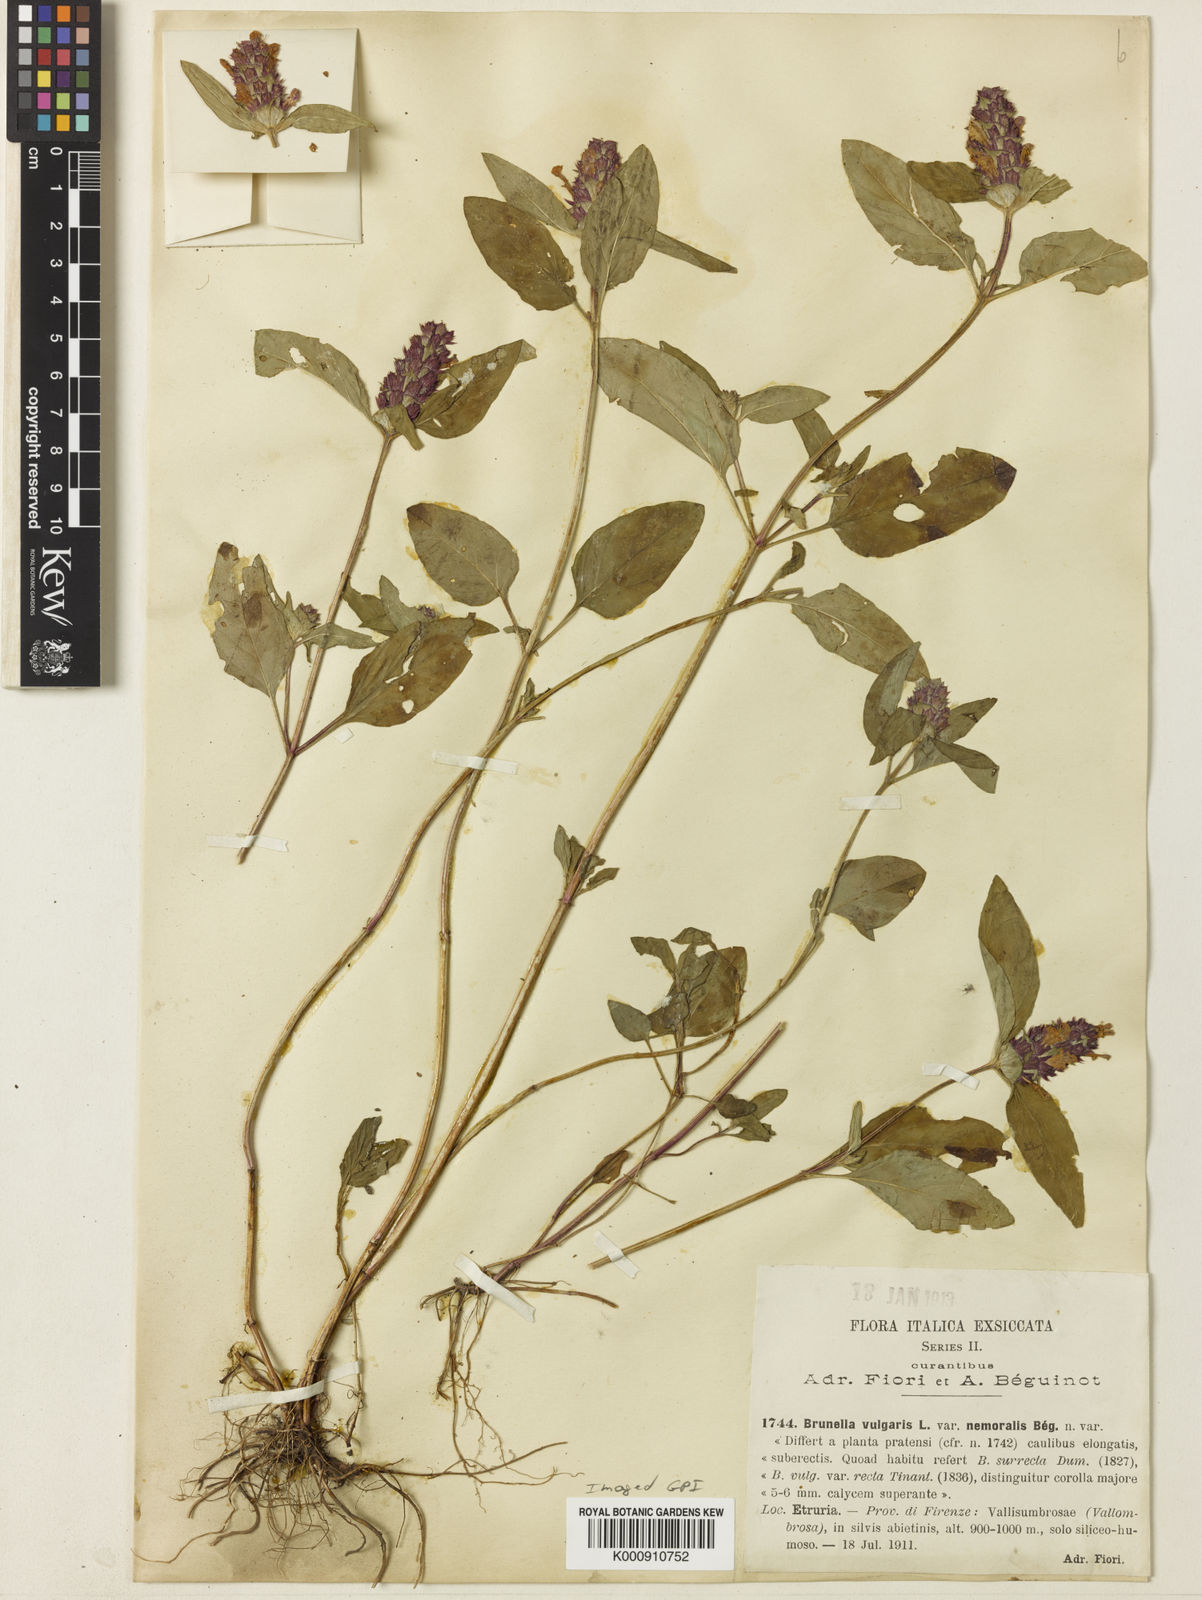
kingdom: Plantae
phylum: Tracheophyta
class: Magnoliopsida
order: Lamiales
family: Lamiaceae
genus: Prunella
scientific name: Prunella vulgaris
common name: Heal-all
